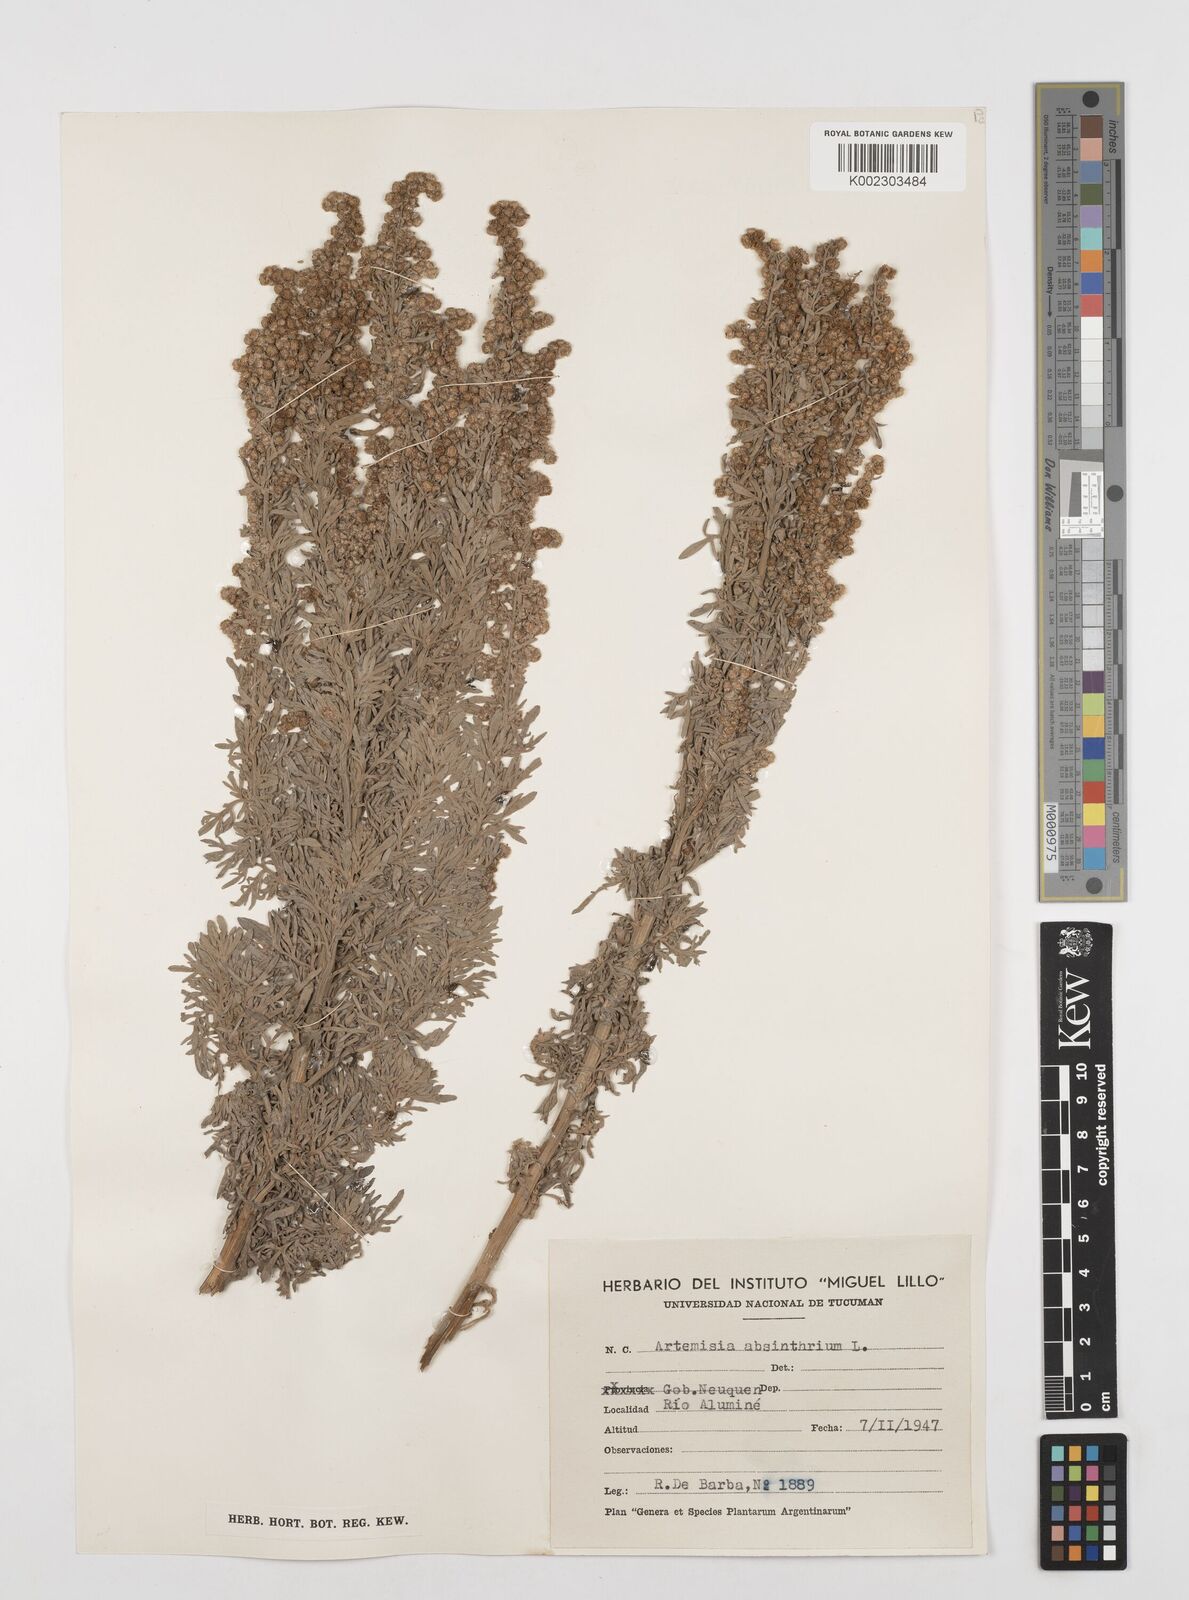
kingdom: Plantae
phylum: Tracheophyta
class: Magnoliopsida
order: Asterales
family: Asteraceae
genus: Artemisia
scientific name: Artemisia absinthium
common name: Wormwood
